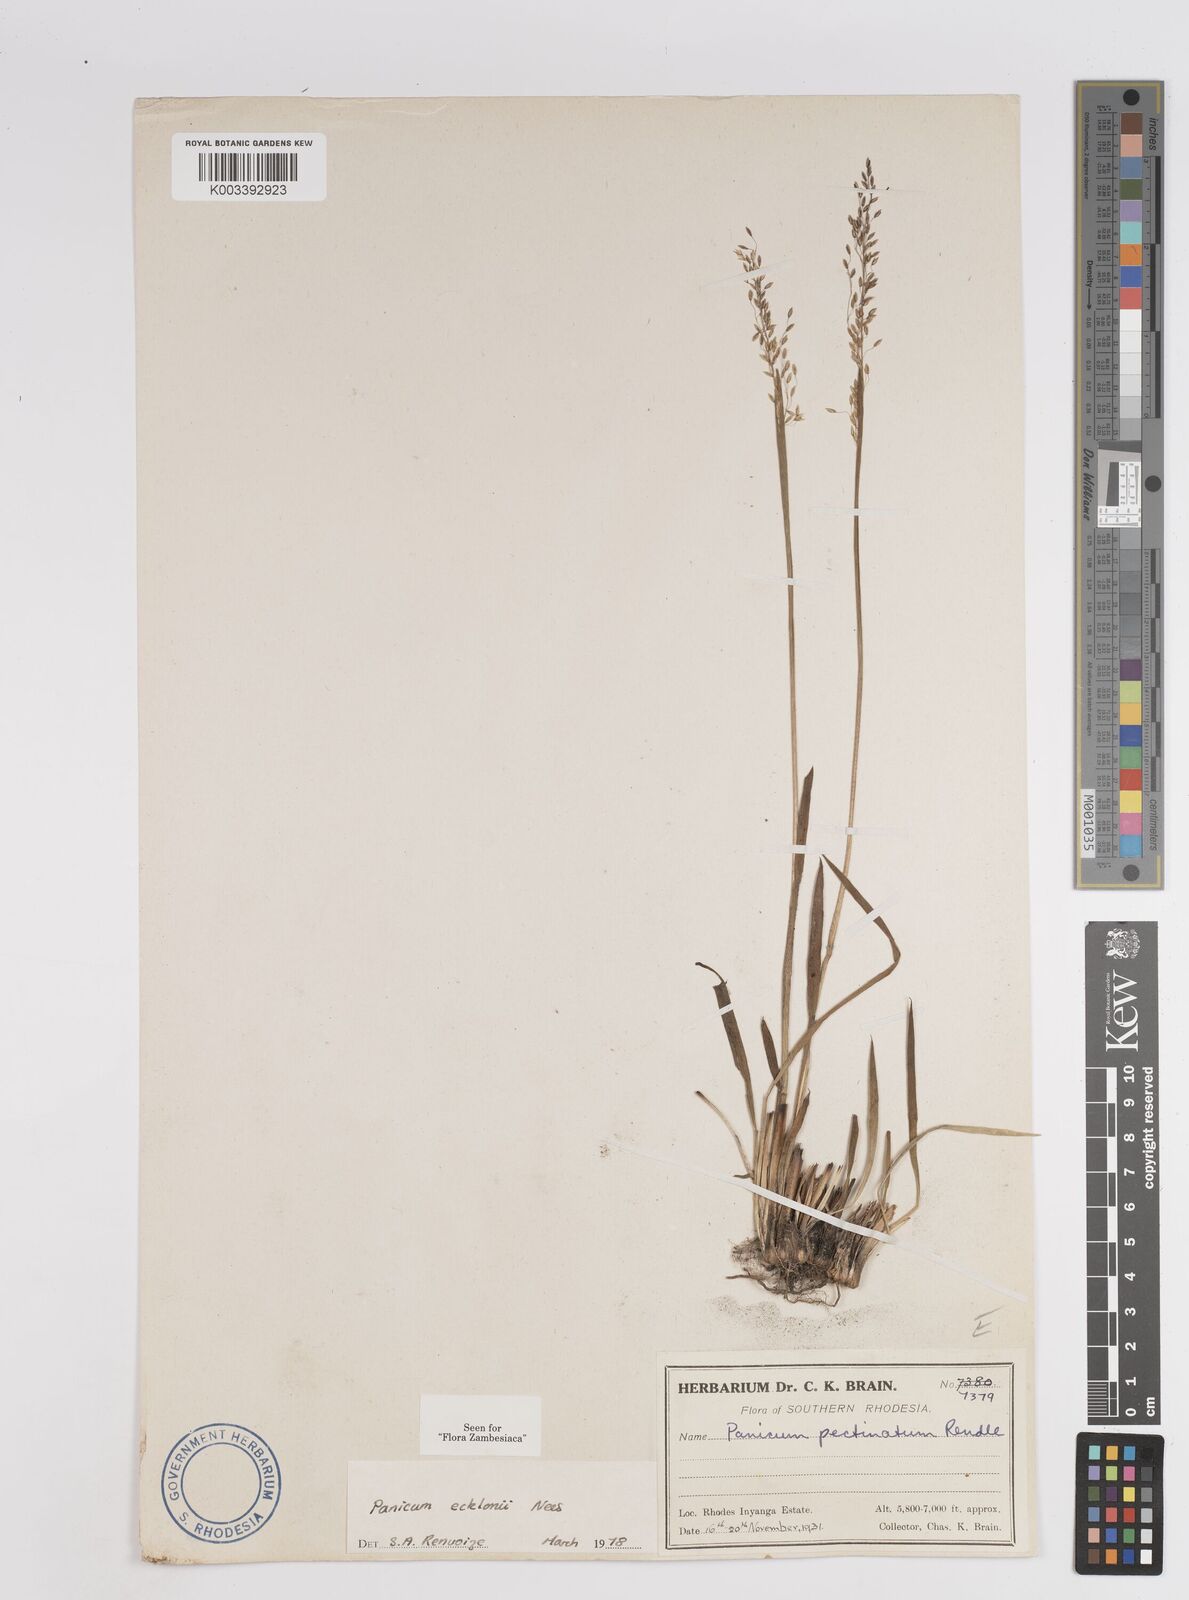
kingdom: Plantae
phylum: Tracheophyta
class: Liliopsida
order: Poales
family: Poaceae
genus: Adenochloa
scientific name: Adenochloa ecklonii
